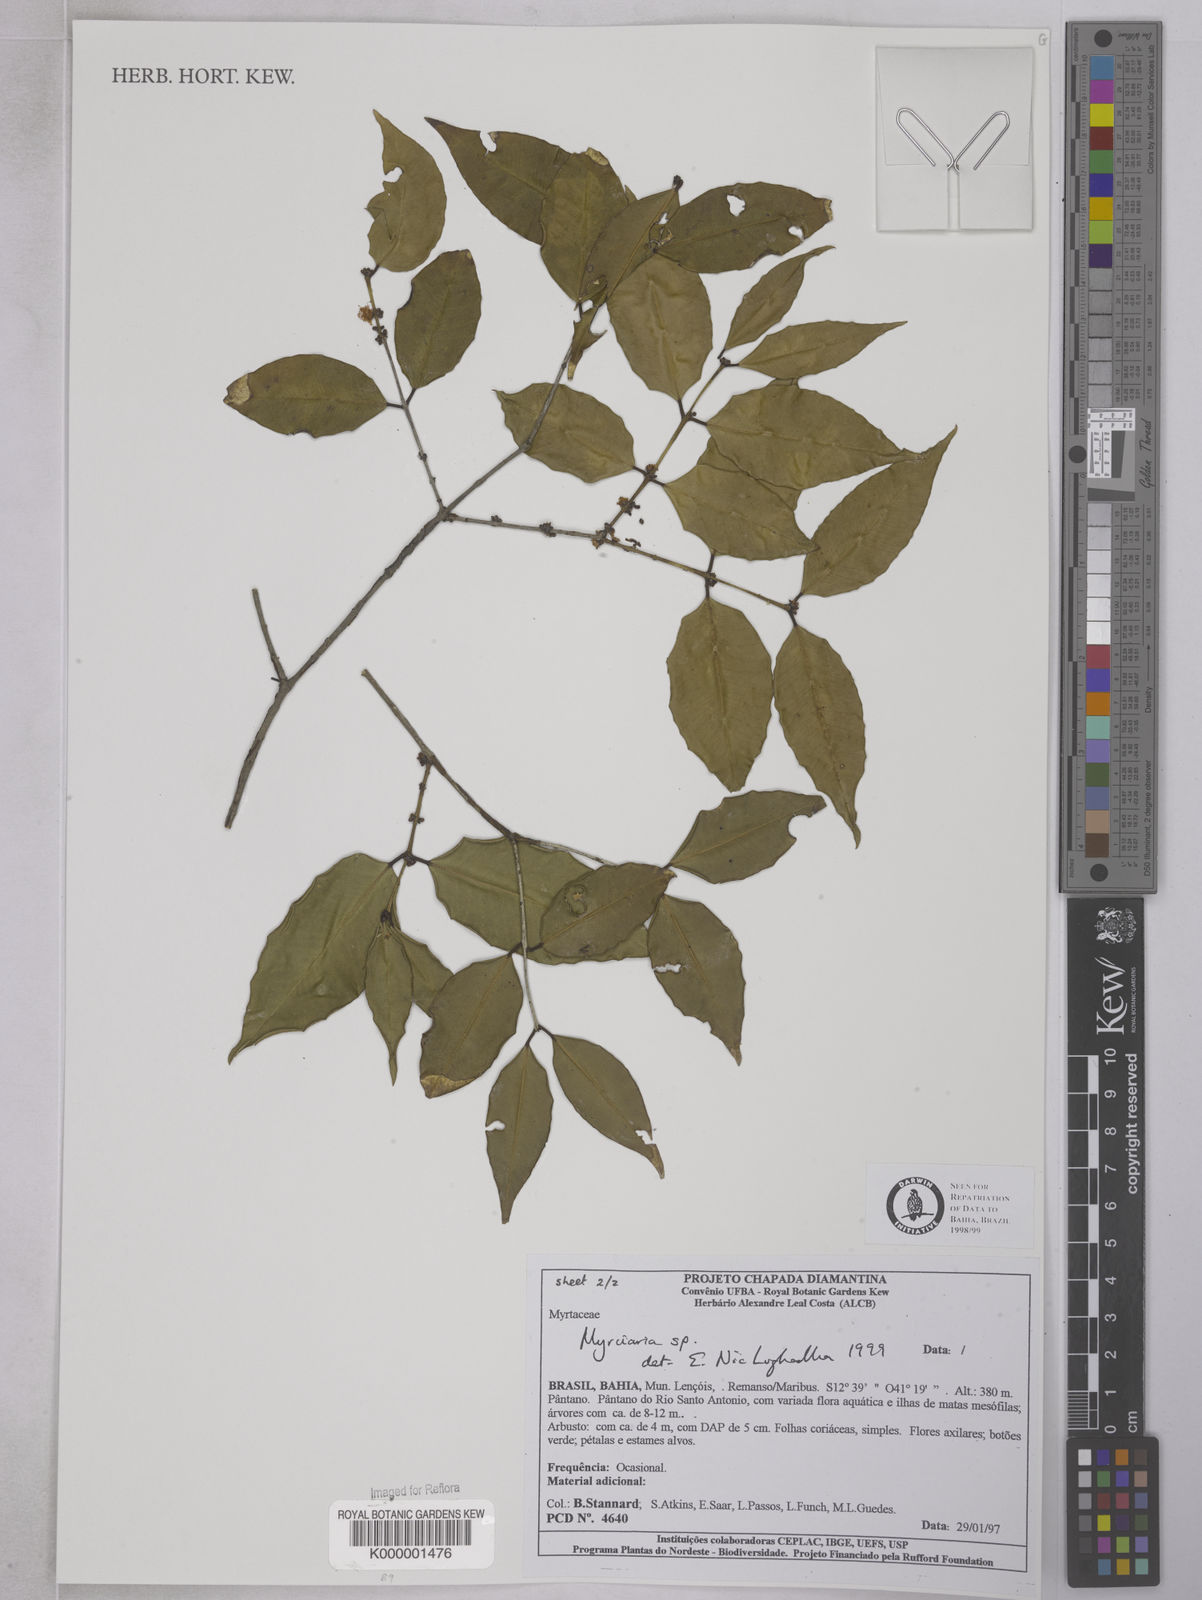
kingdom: Plantae
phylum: Tracheophyta
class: Magnoliopsida
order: Myrtales
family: Myrtaceae
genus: Myrciaria
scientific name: Myrciaria
